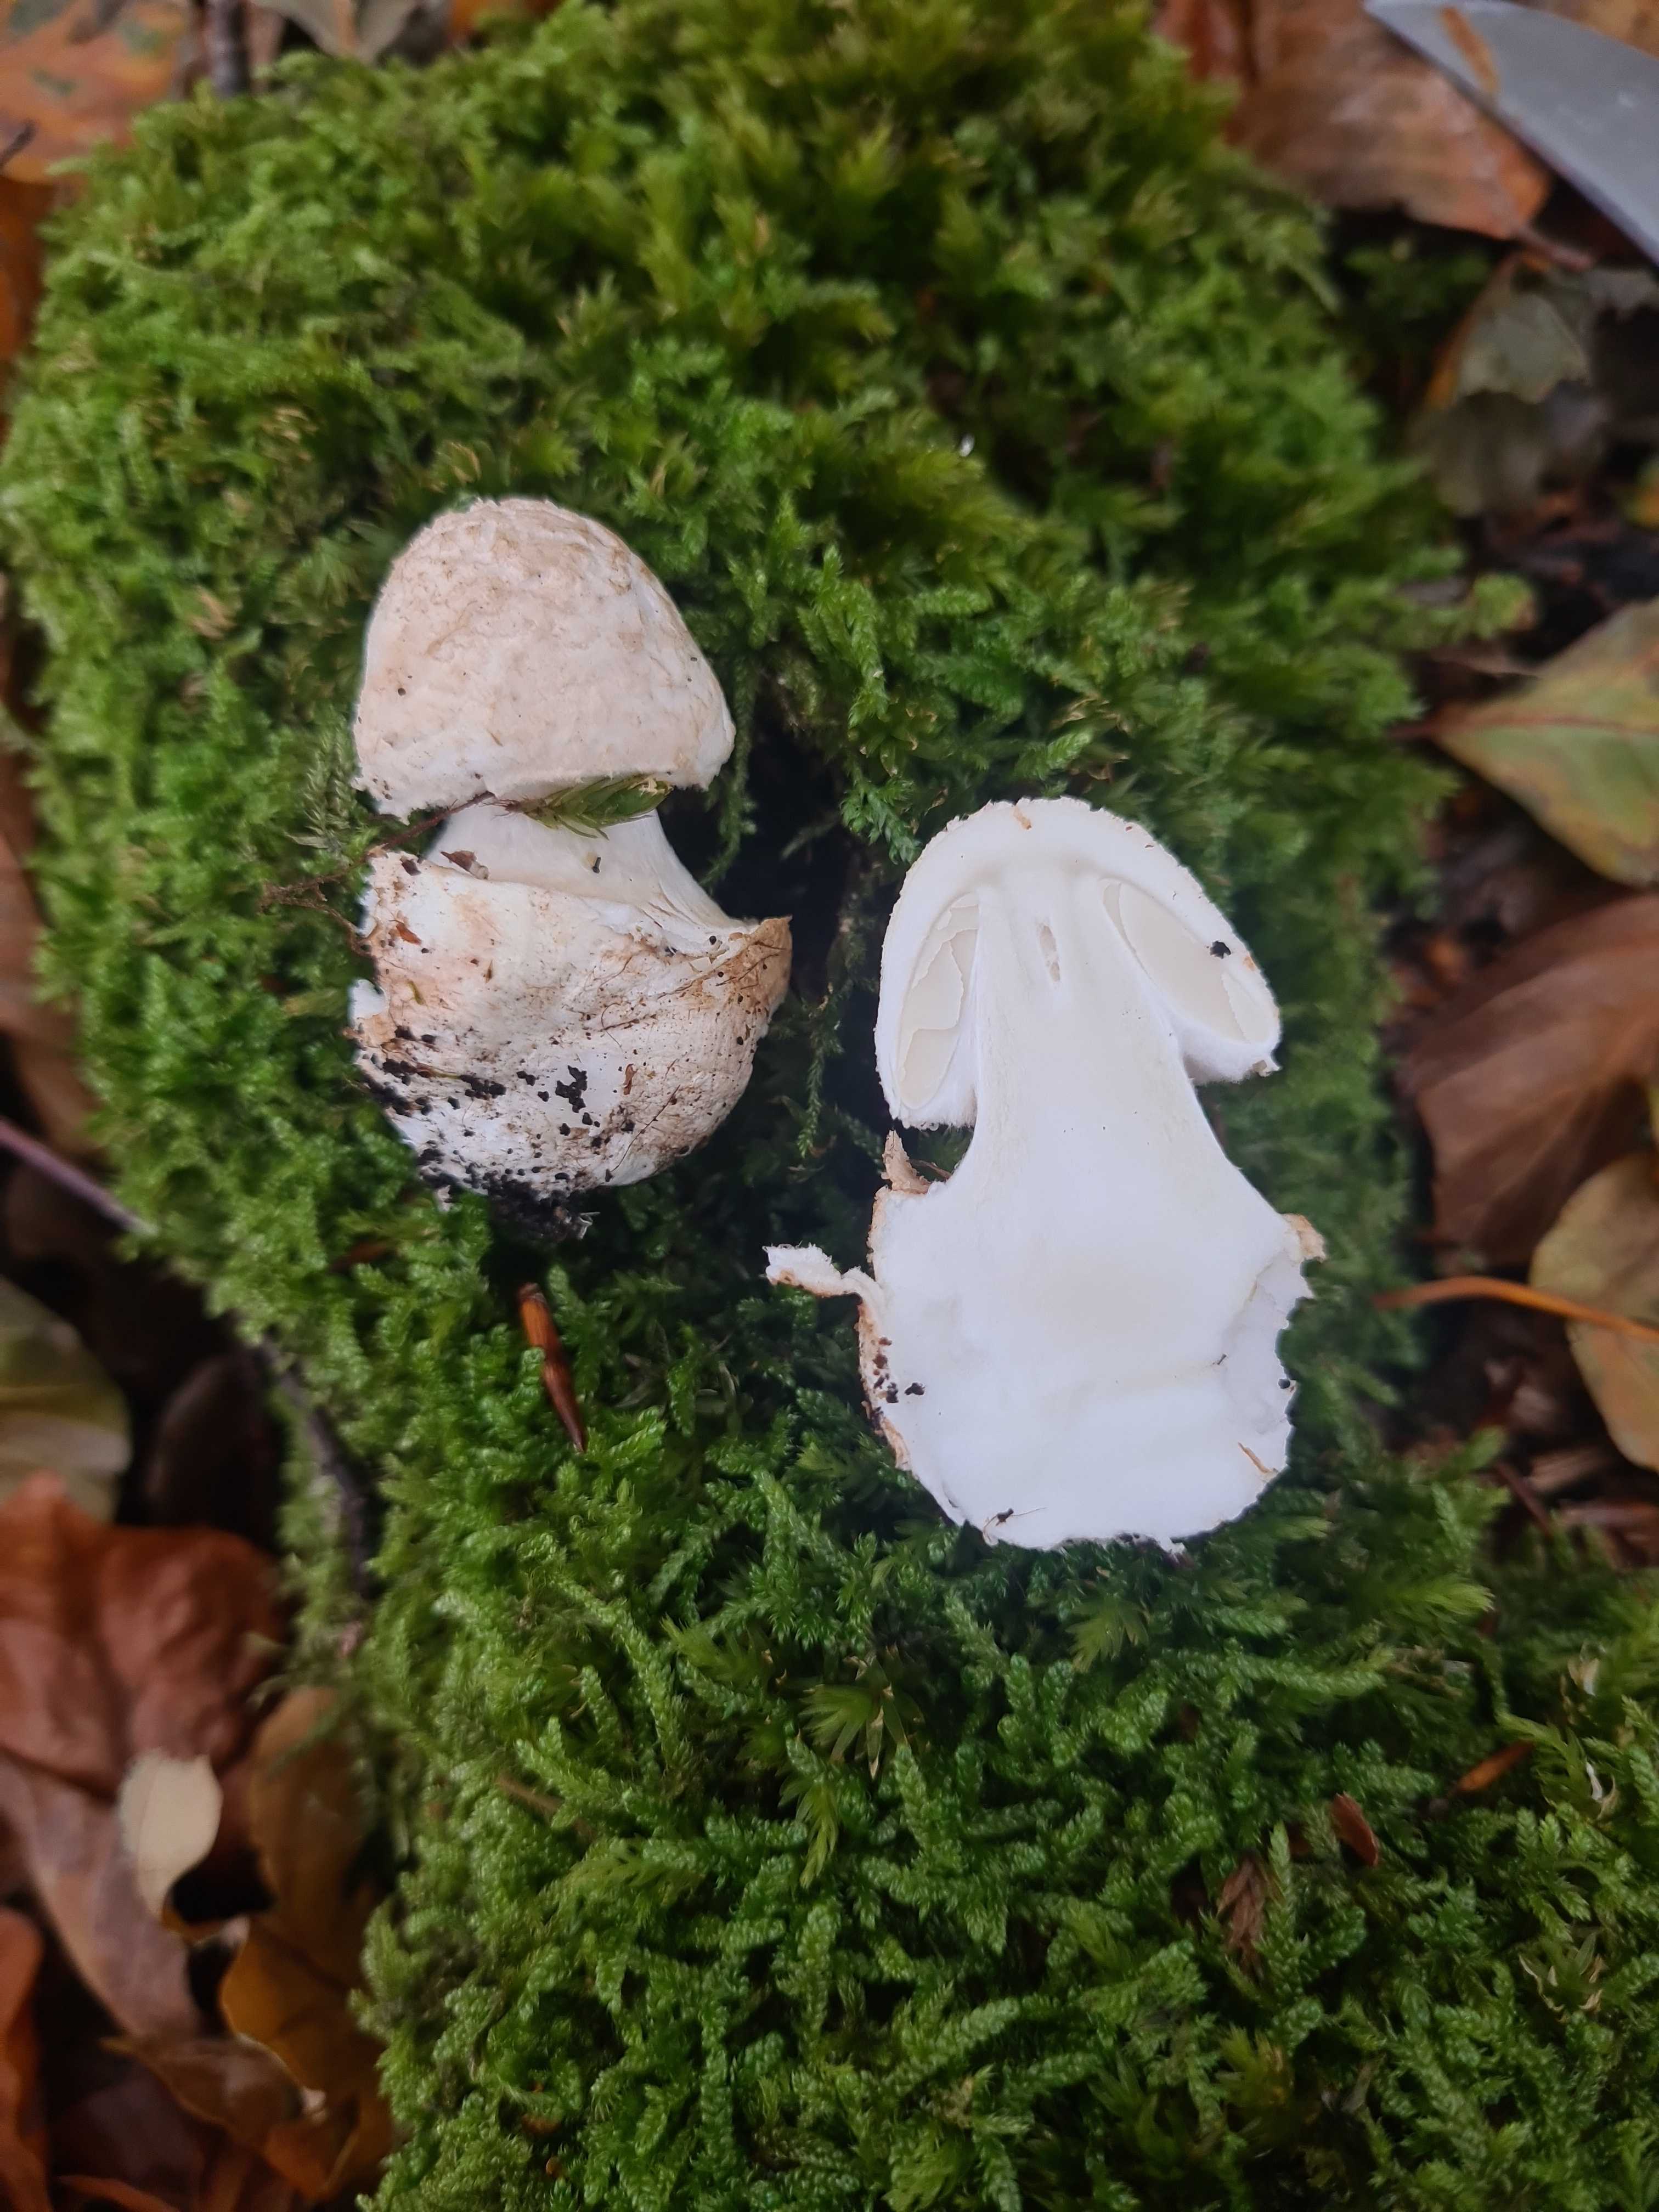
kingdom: Fungi
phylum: Basidiomycota
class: Agaricomycetes
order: Agaricales
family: Amanitaceae
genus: Amanita
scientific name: Amanita citrina
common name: kugleknoldet fluesvamp
